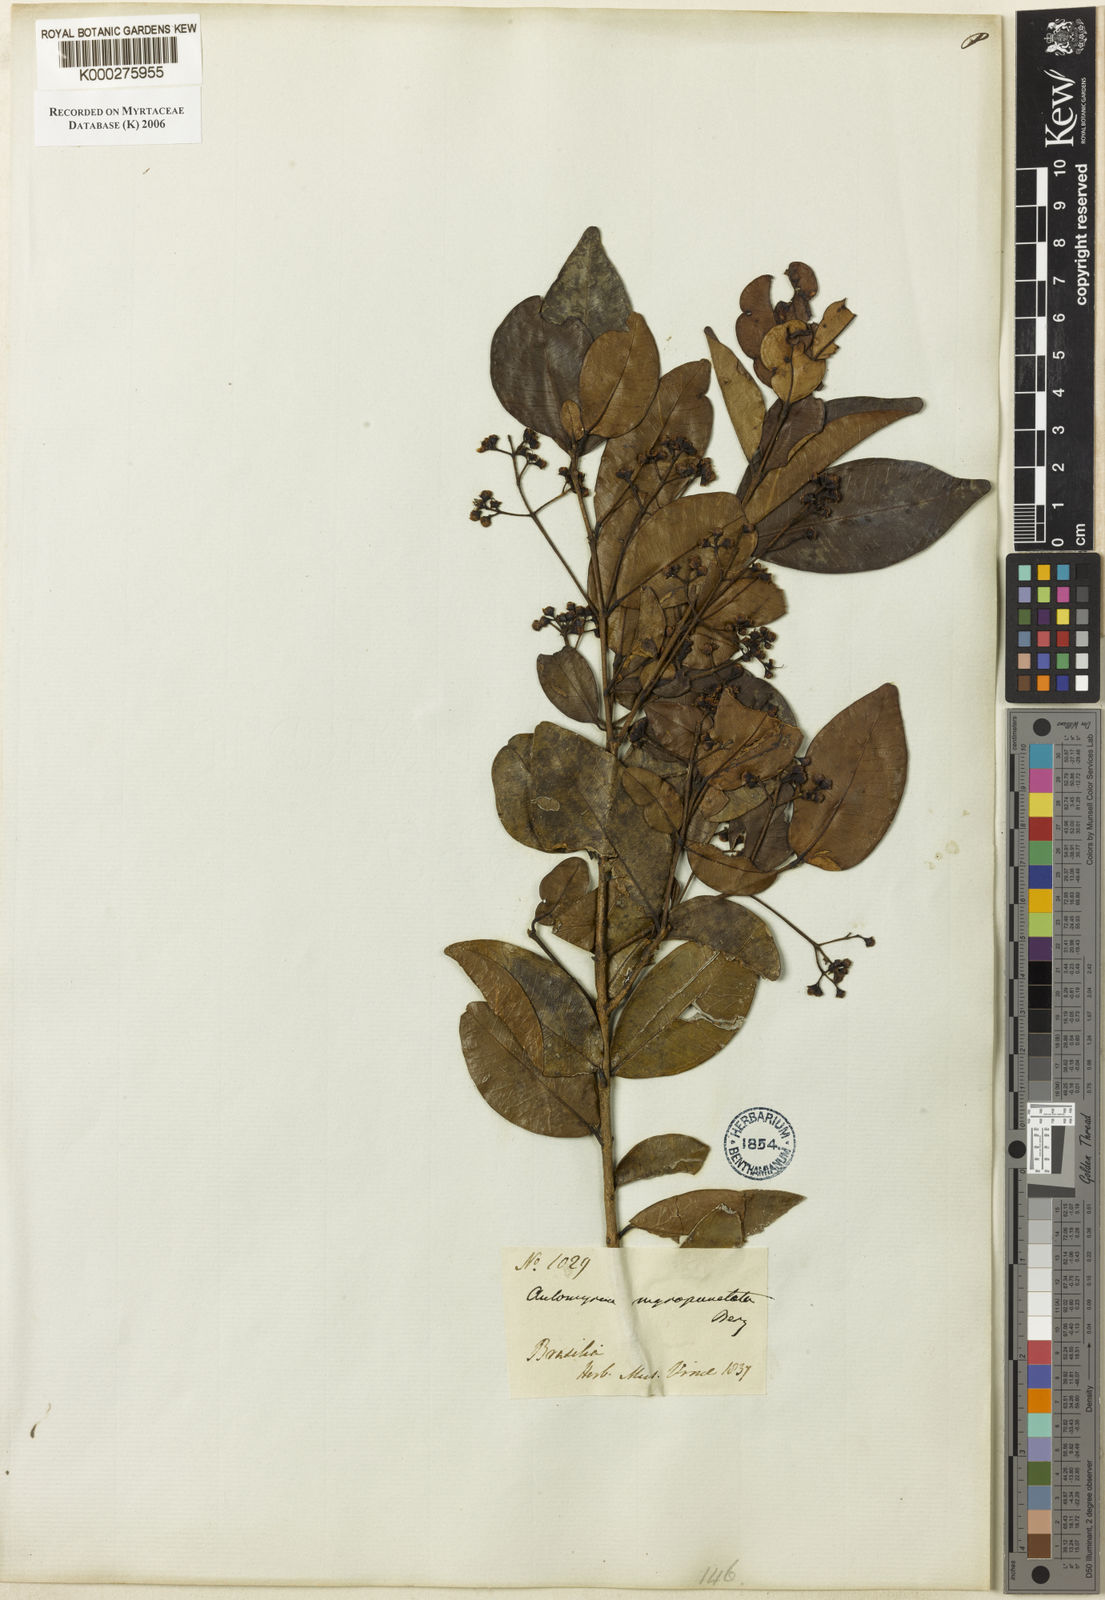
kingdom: Plantae
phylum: Tracheophyta
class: Magnoliopsida
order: Myrtales
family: Myrtaceae
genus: Myrcia
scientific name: Myrcia nigropunctata
